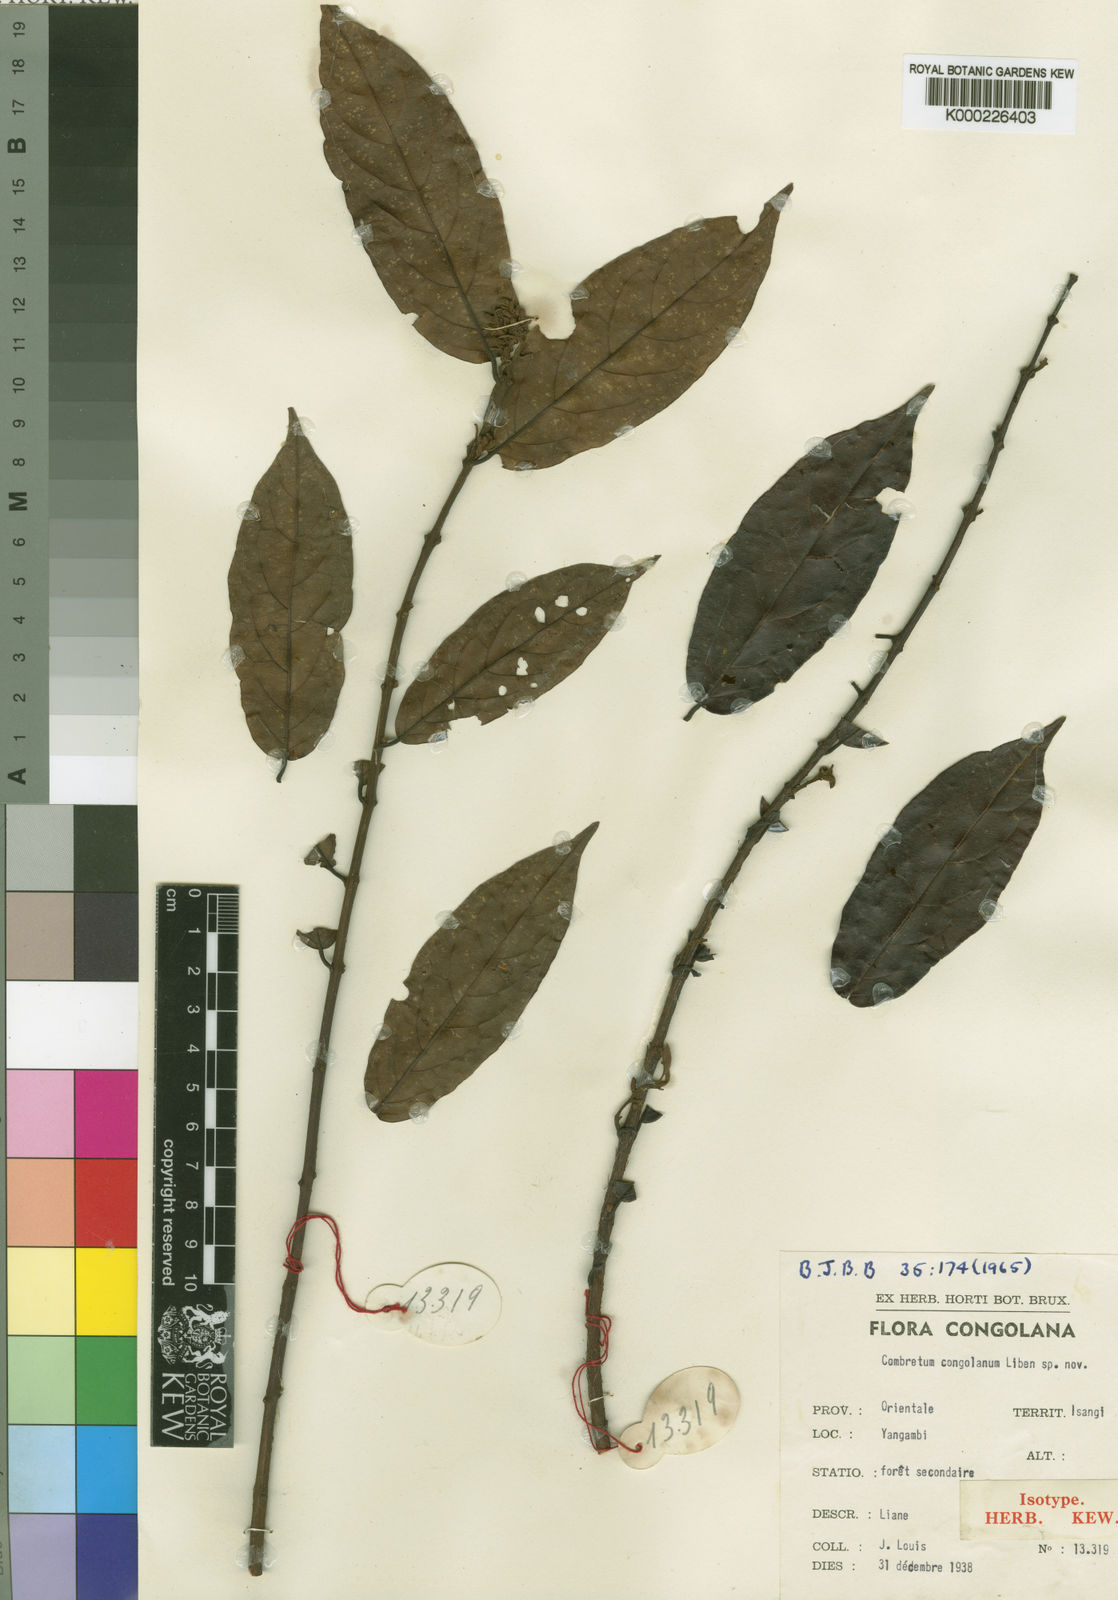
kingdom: Plantae
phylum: Tracheophyta
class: Magnoliopsida
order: Myrtales
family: Combretaceae
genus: Combretum
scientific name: Combretum congolanum
